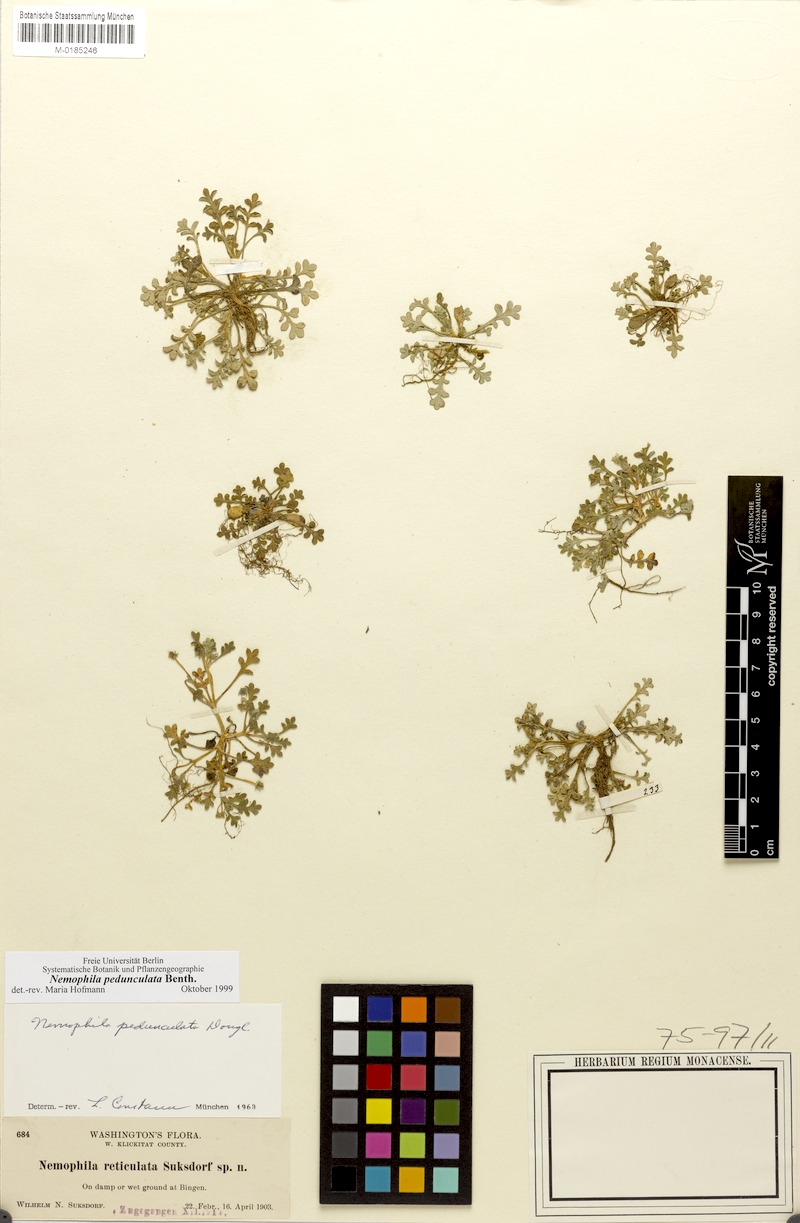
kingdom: Plantae
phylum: Tracheophyta
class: Magnoliopsida
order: Boraginales
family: Hydrophyllaceae
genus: Nemophila
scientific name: Nemophila pedunculata
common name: Little-foot baby-blue-eyes
